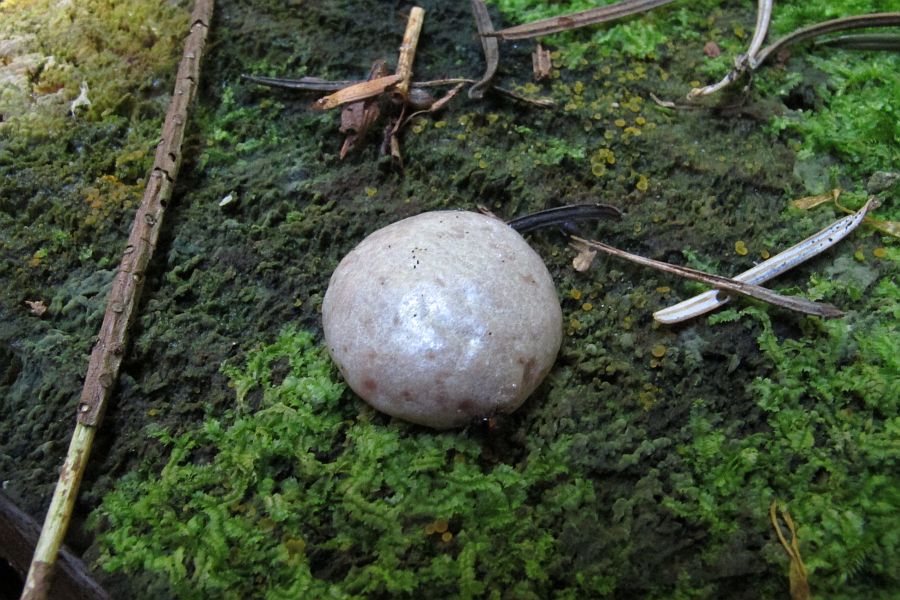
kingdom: Protozoa
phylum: Mycetozoa
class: Myxomycetes
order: Cribrariales
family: Tubiferaceae
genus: Reticularia
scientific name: Reticularia lycoperdon
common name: skinnende støvpude
